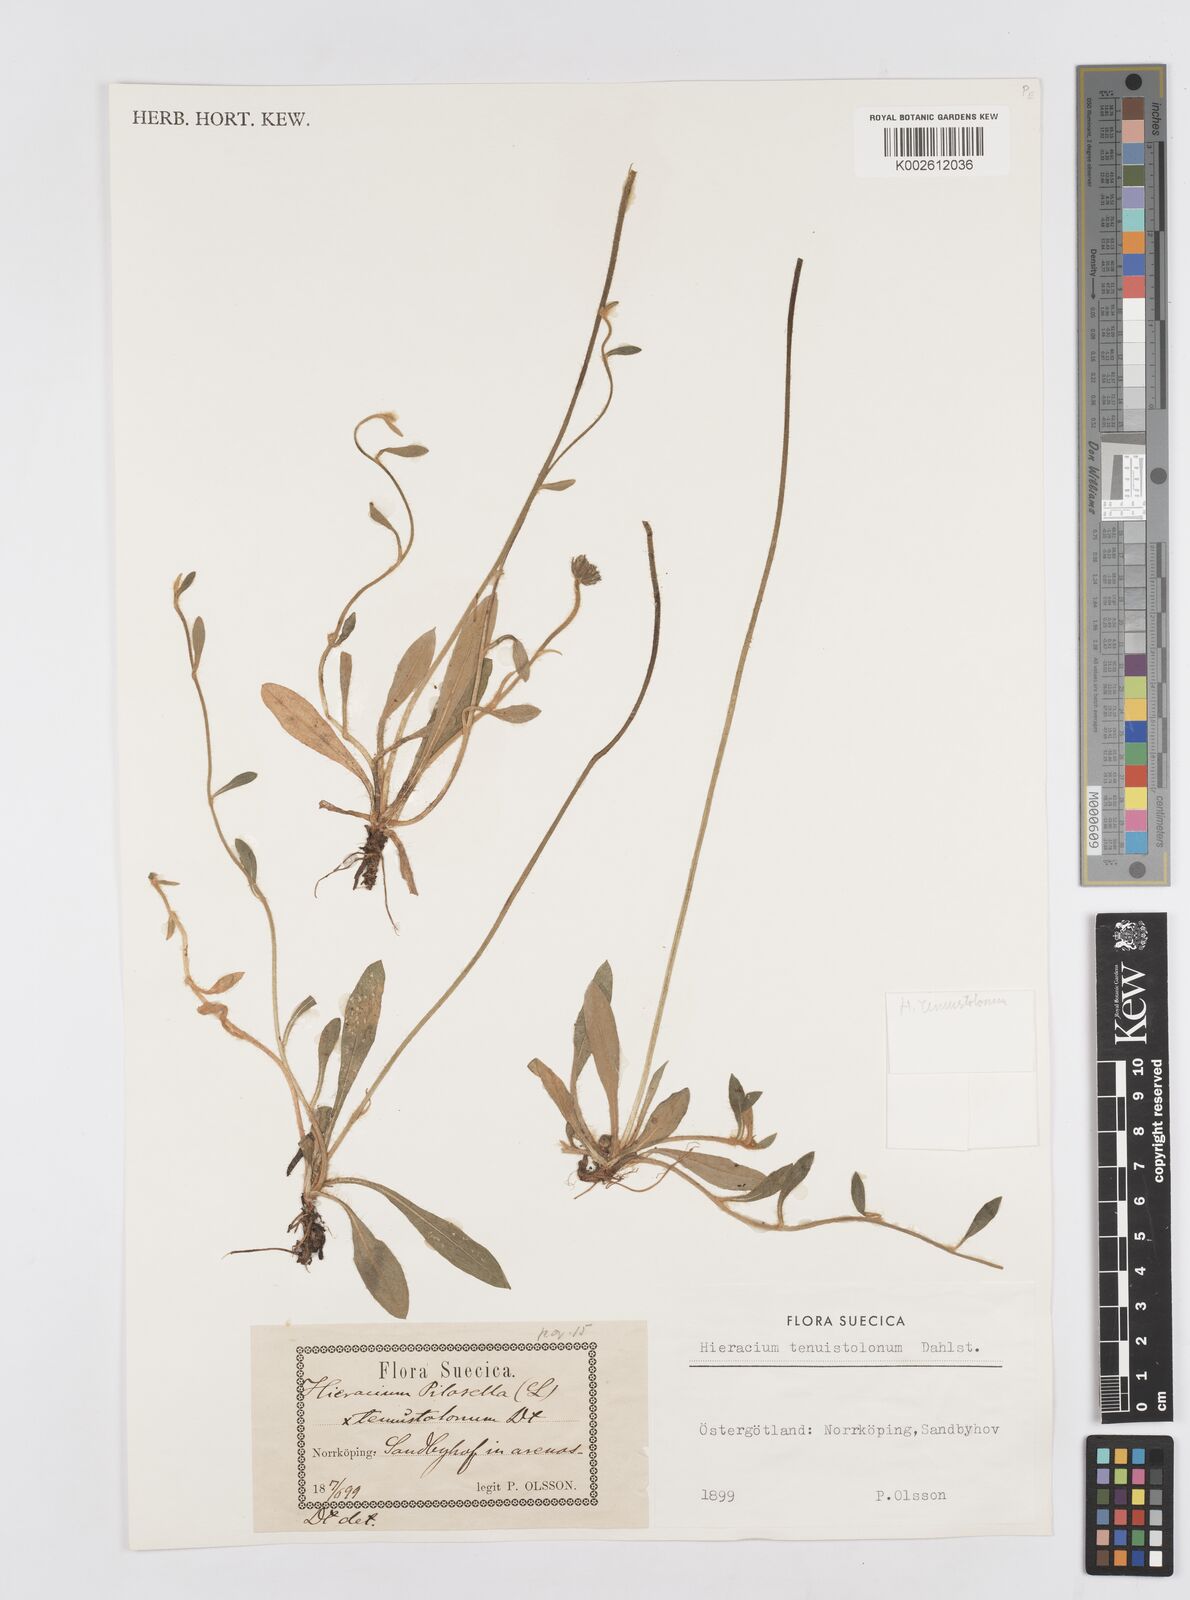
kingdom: Plantae
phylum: Tracheophyta
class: Magnoliopsida
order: Asterales
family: Asteraceae
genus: Hieracium
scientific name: Hieracium tenuistolonum
